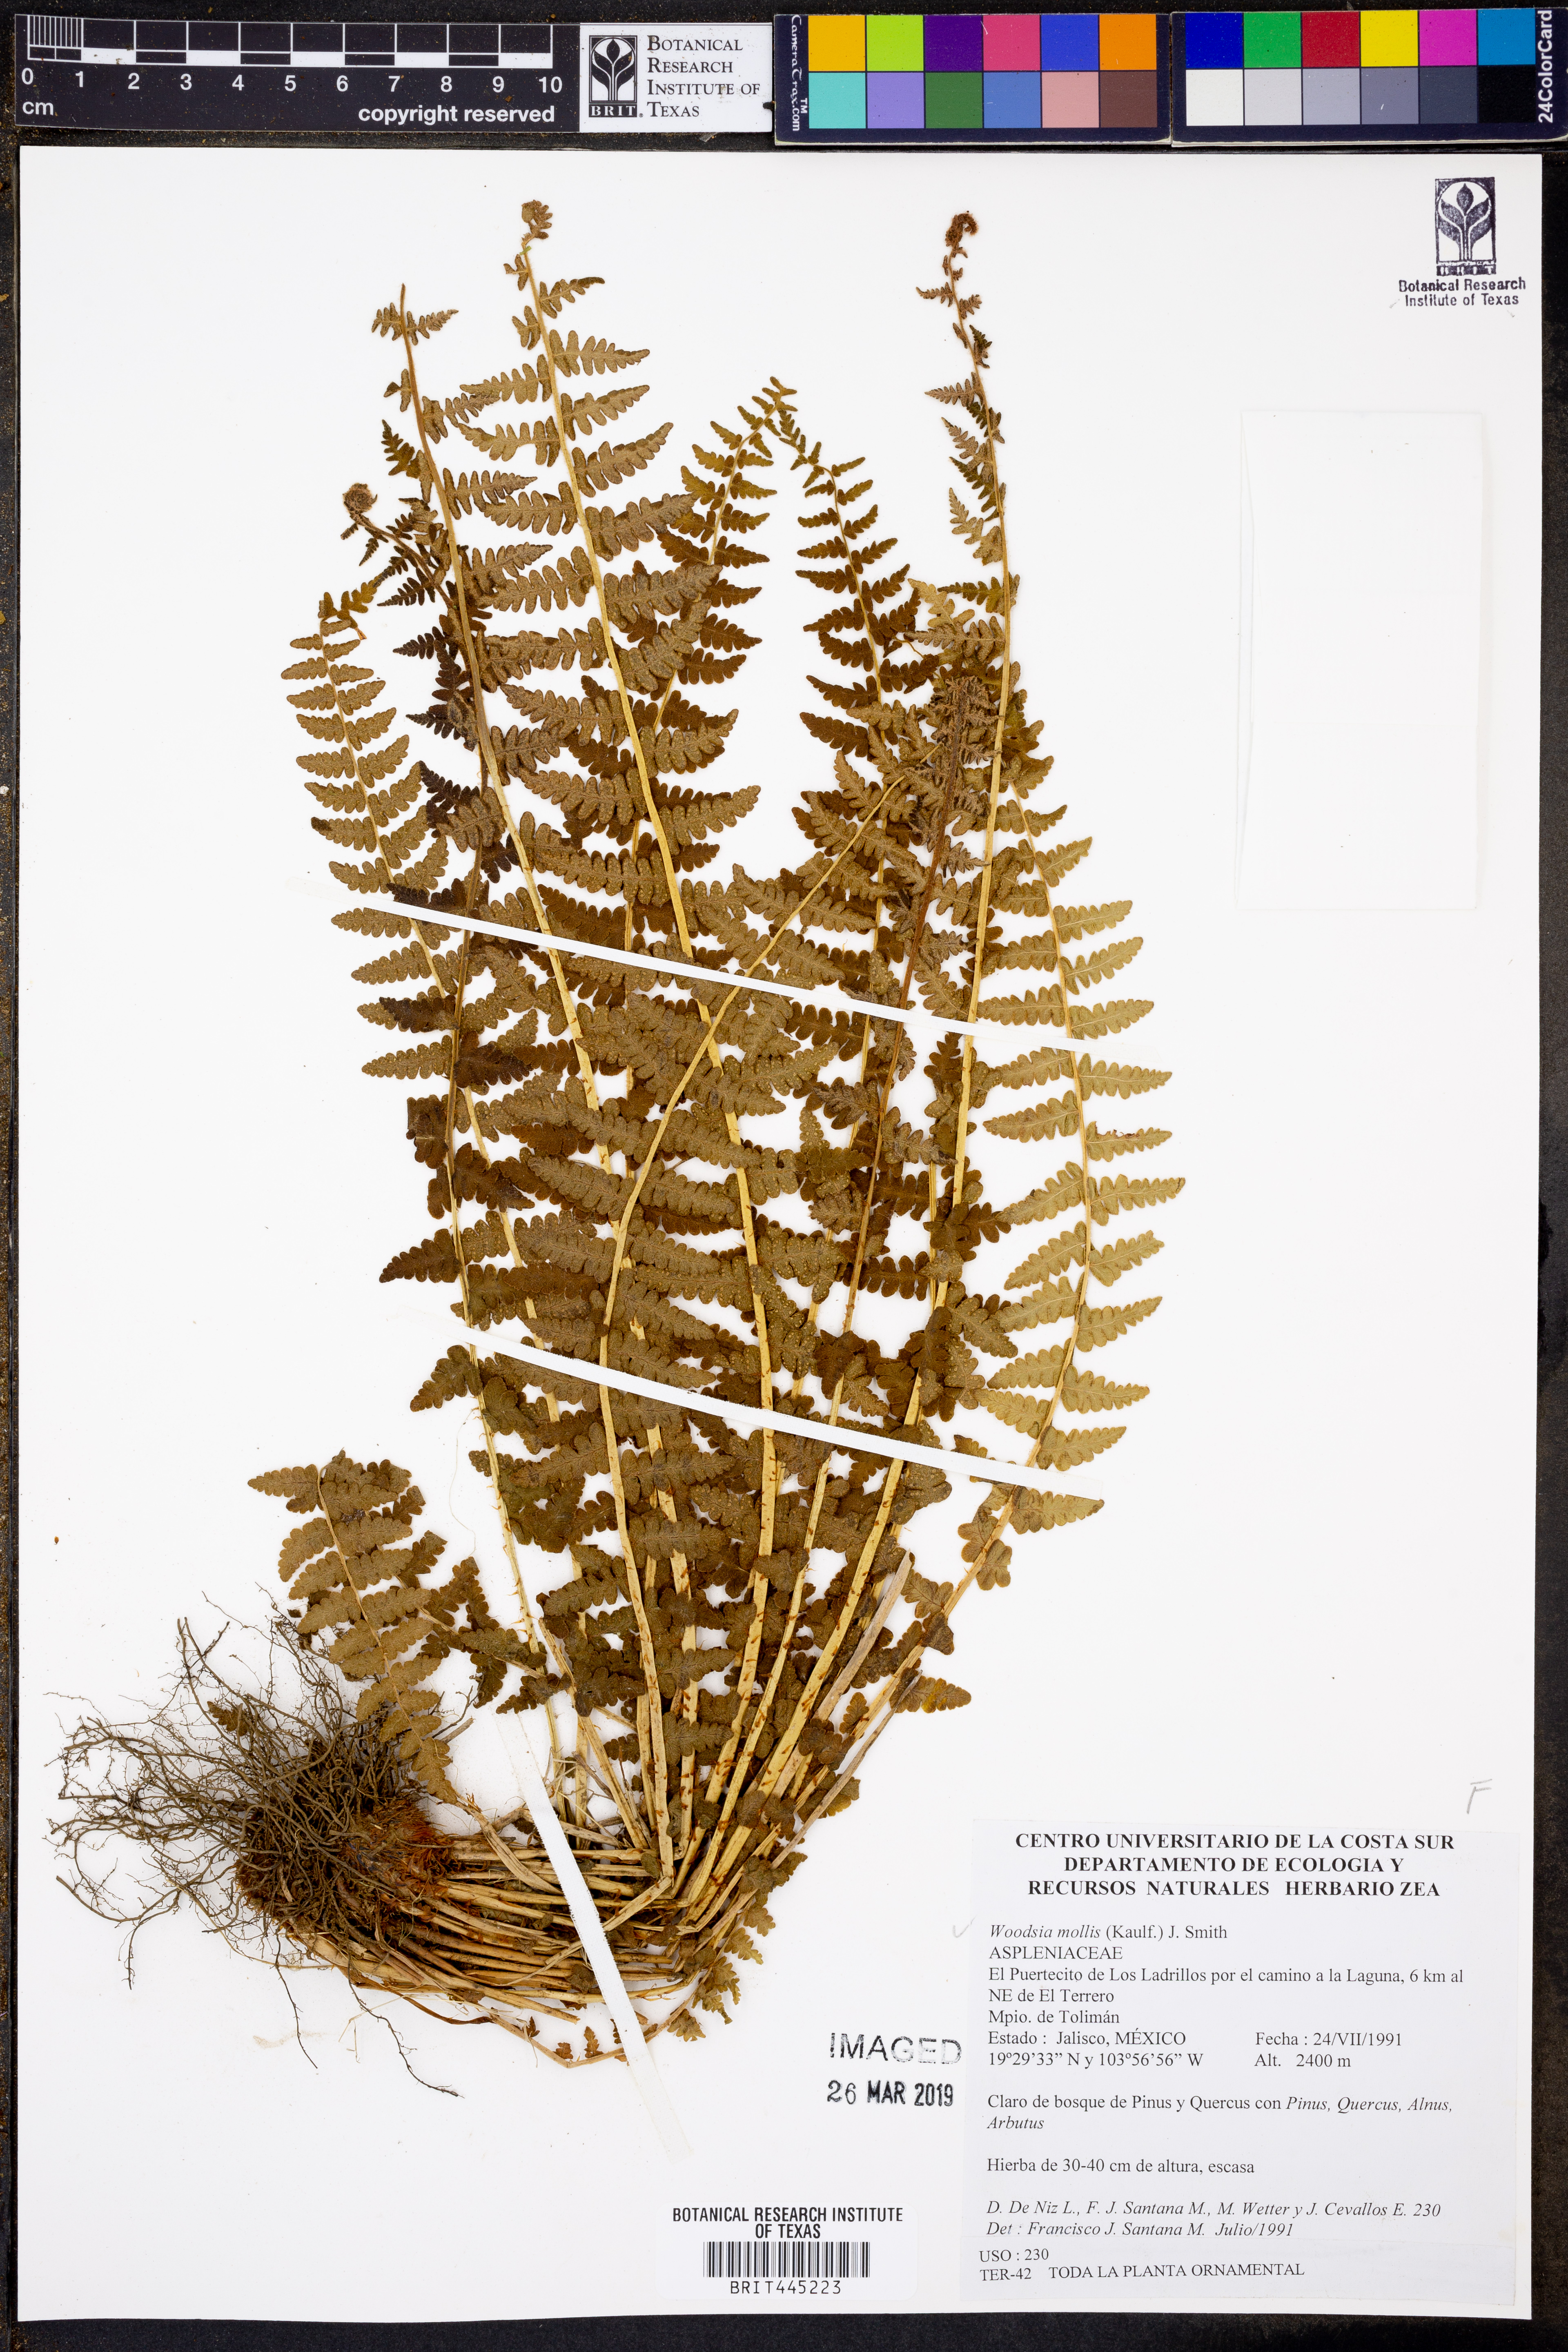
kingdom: Plantae
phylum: Tracheophyta
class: Polypodiopsida
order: Polypodiales
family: Woodsiaceae
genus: Physematium
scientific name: Physematium molle
